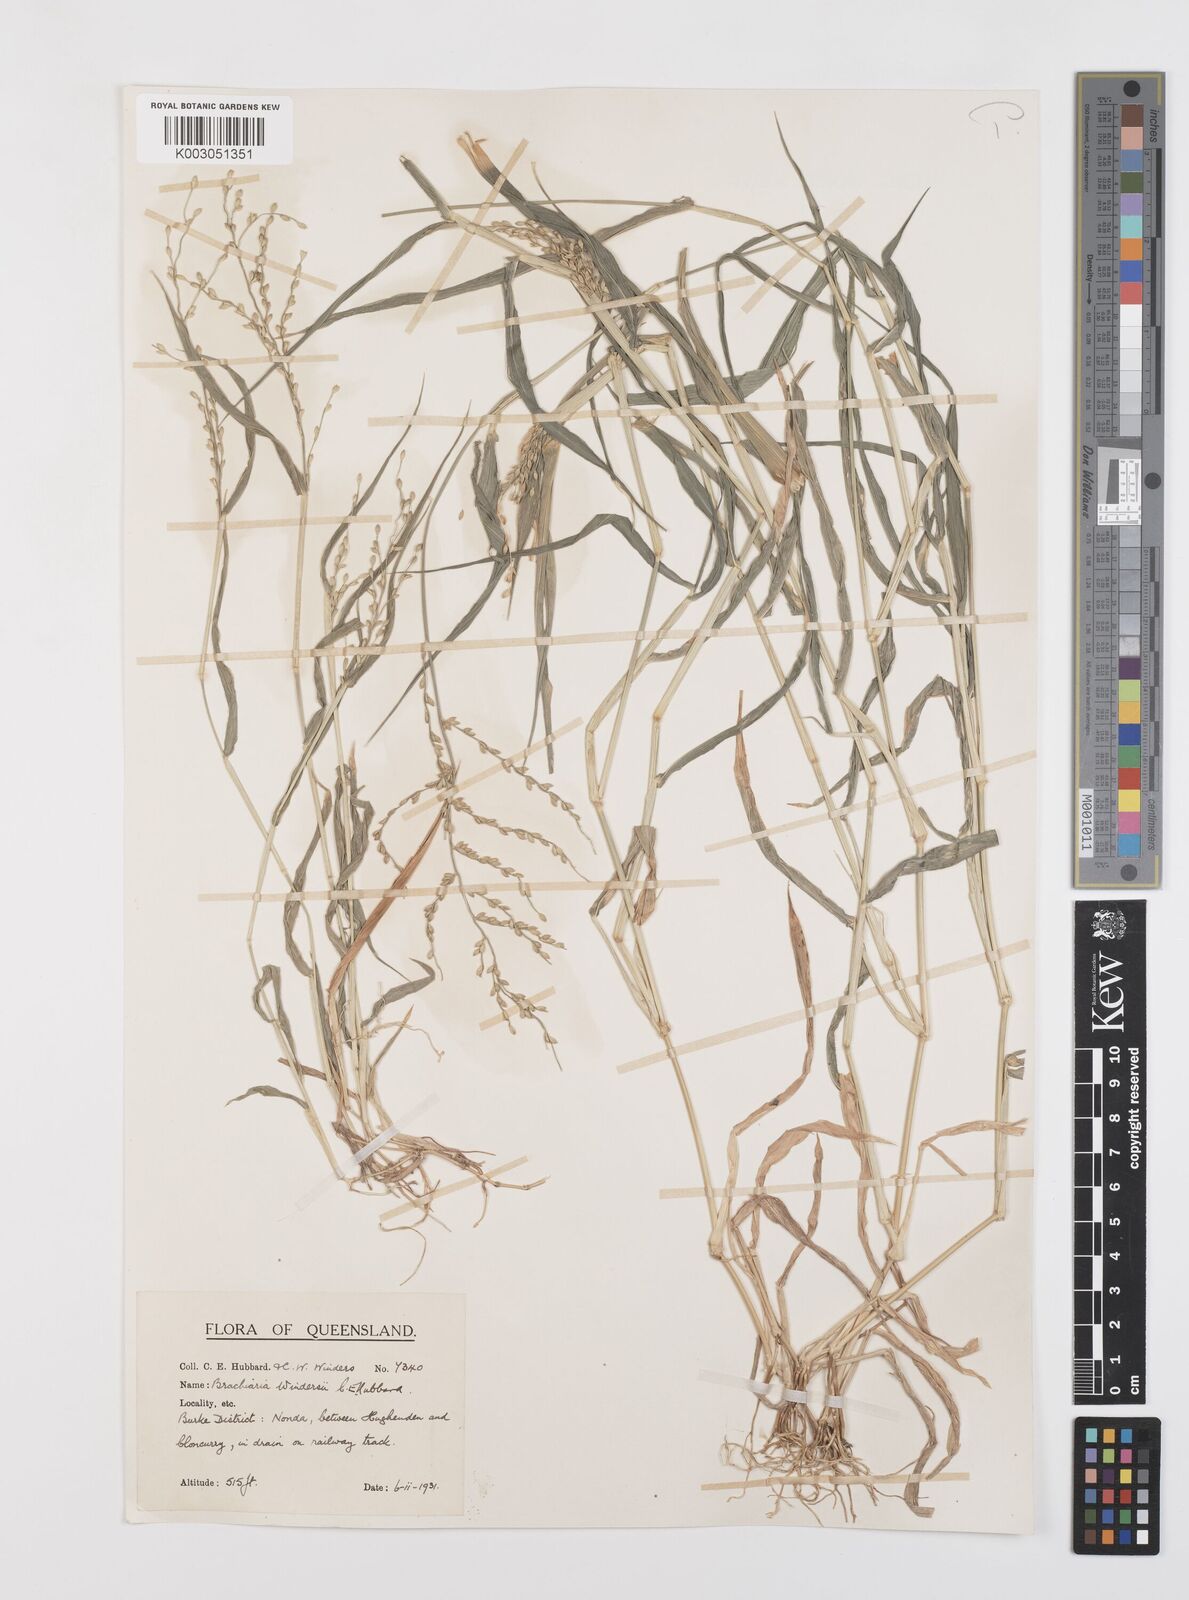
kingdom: Plantae
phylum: Tracheophyta
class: Liliopsida
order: Poales
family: Poaceae
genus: Urochloa
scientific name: Urochloa whiteana
